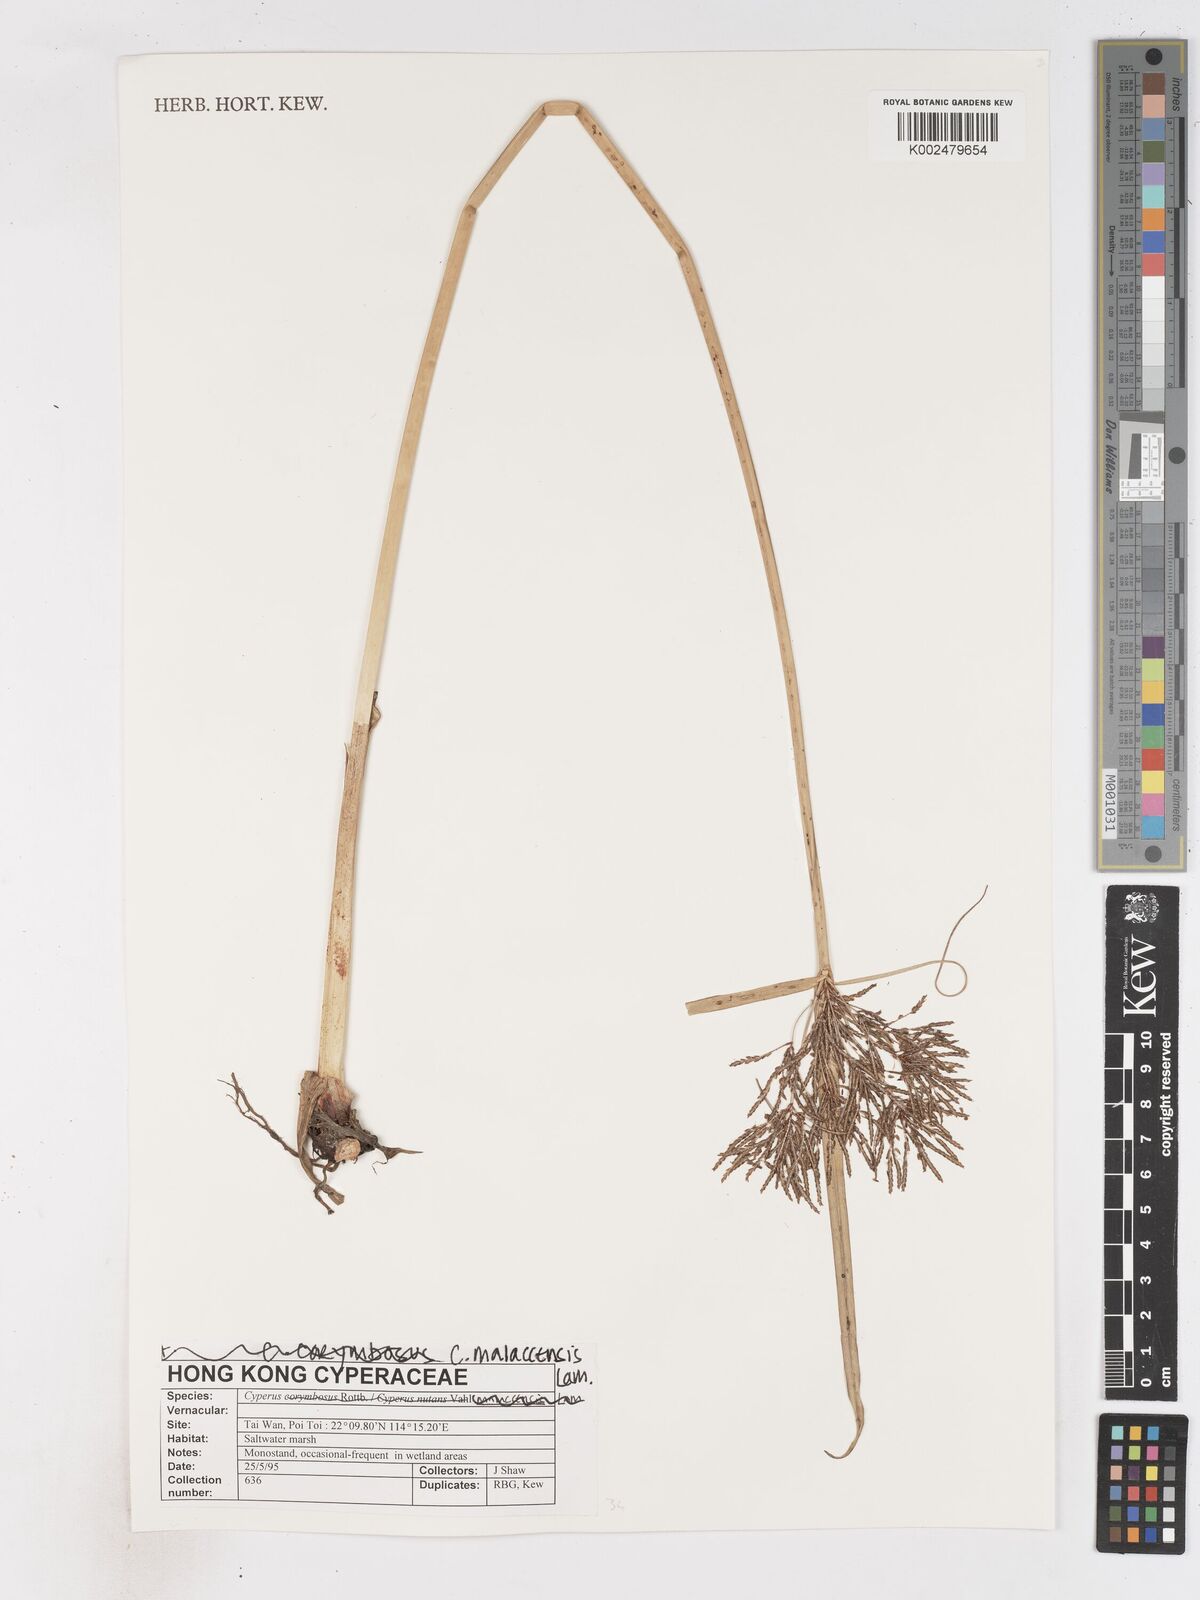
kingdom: Plantae
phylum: Tracheophyta
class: Liliopsida
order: Poales
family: Cyperaceae
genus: Cyperus
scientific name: Cyperus malaccensis
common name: Shichito matgrass
